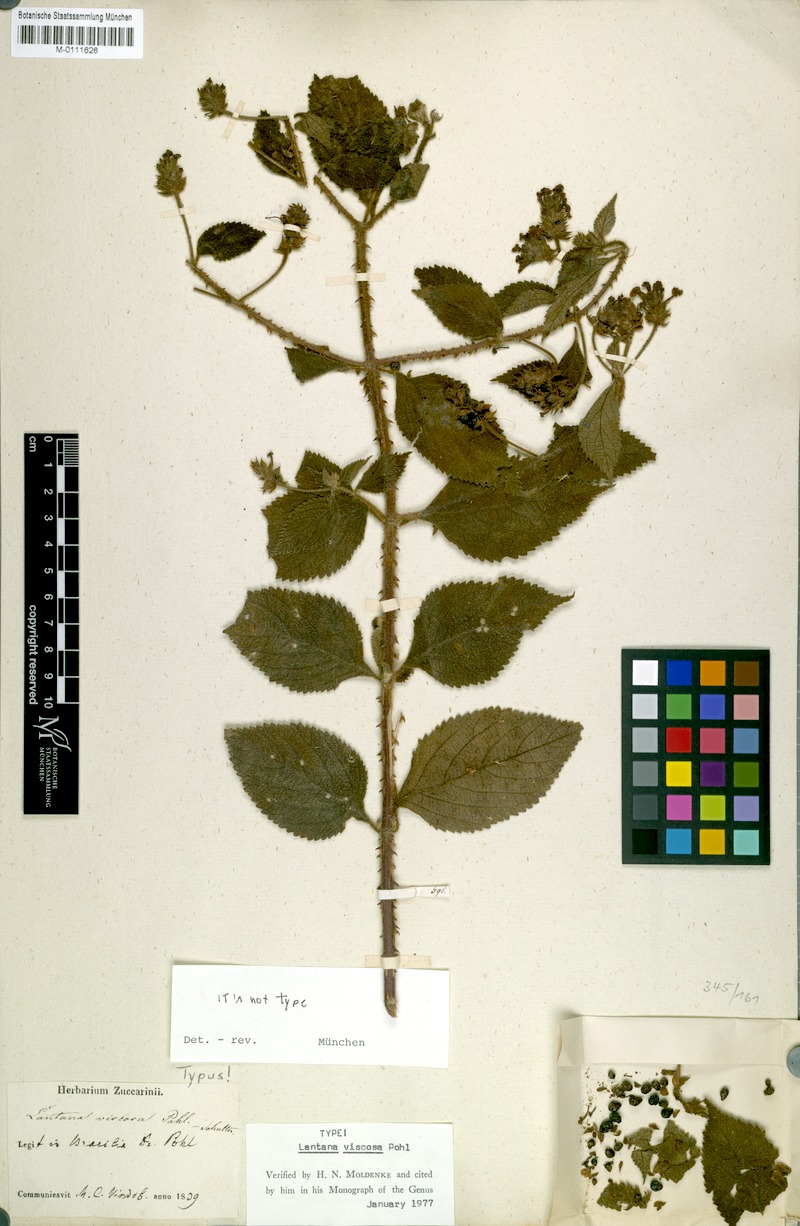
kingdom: Plantae
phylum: Tracheophyta
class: Magnoliopsida
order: Lamiales
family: Verbenaceae
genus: Lantana
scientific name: Lantana viscosa
